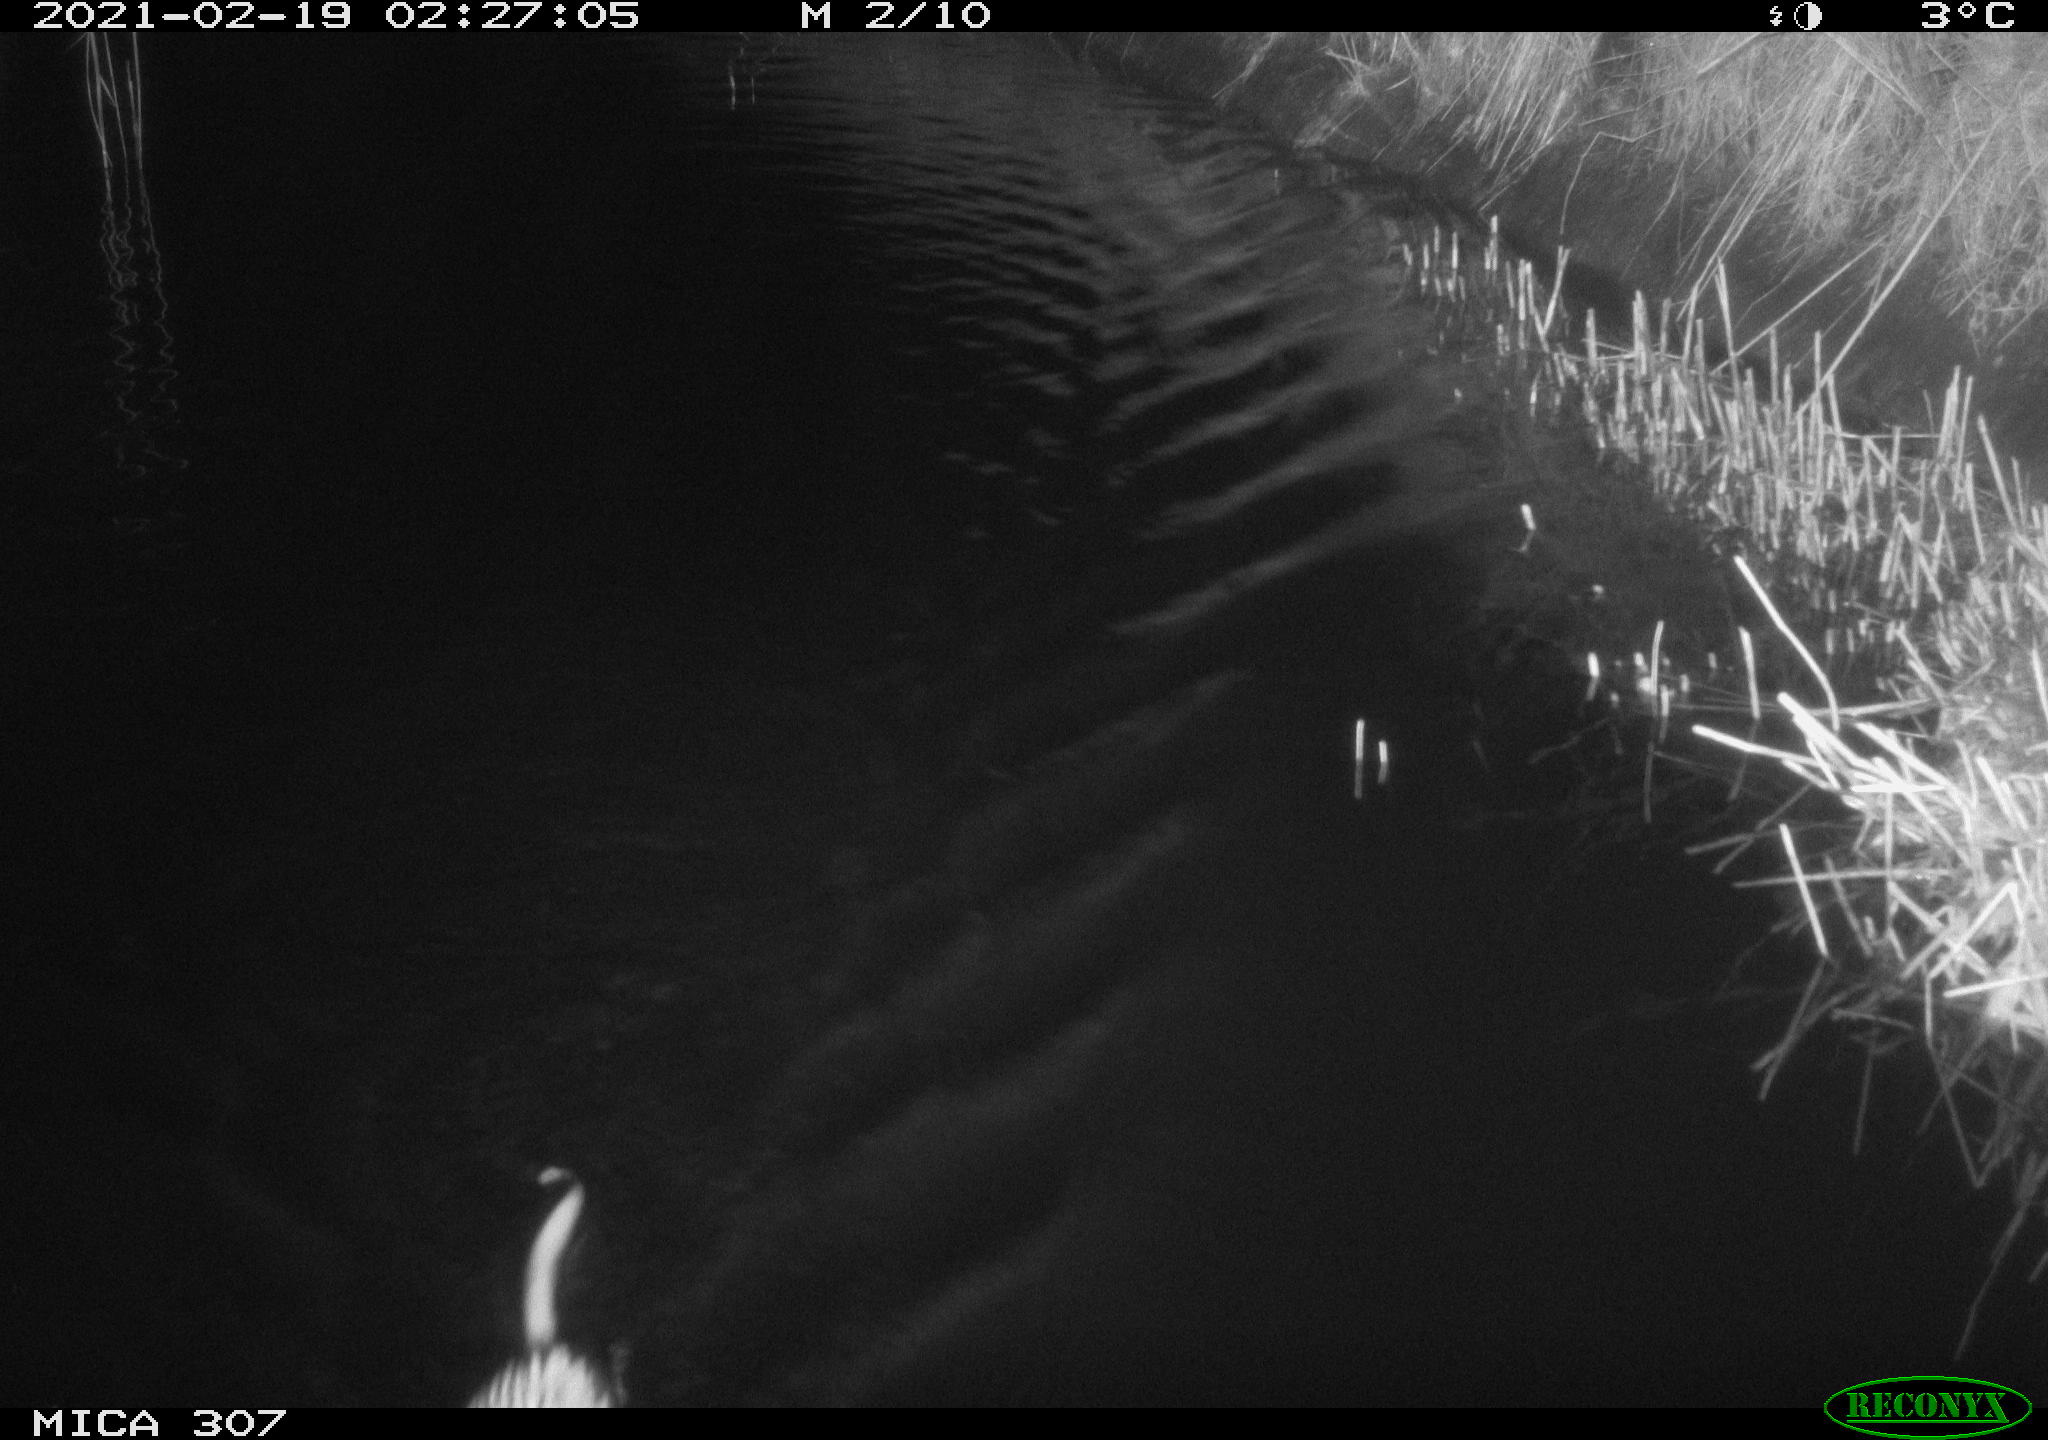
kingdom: Animalia
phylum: Chordata
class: Mammalia
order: Rodentia
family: Cricetidae
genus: Ondatra
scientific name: Ondatra zibethicus
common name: Muskrat
